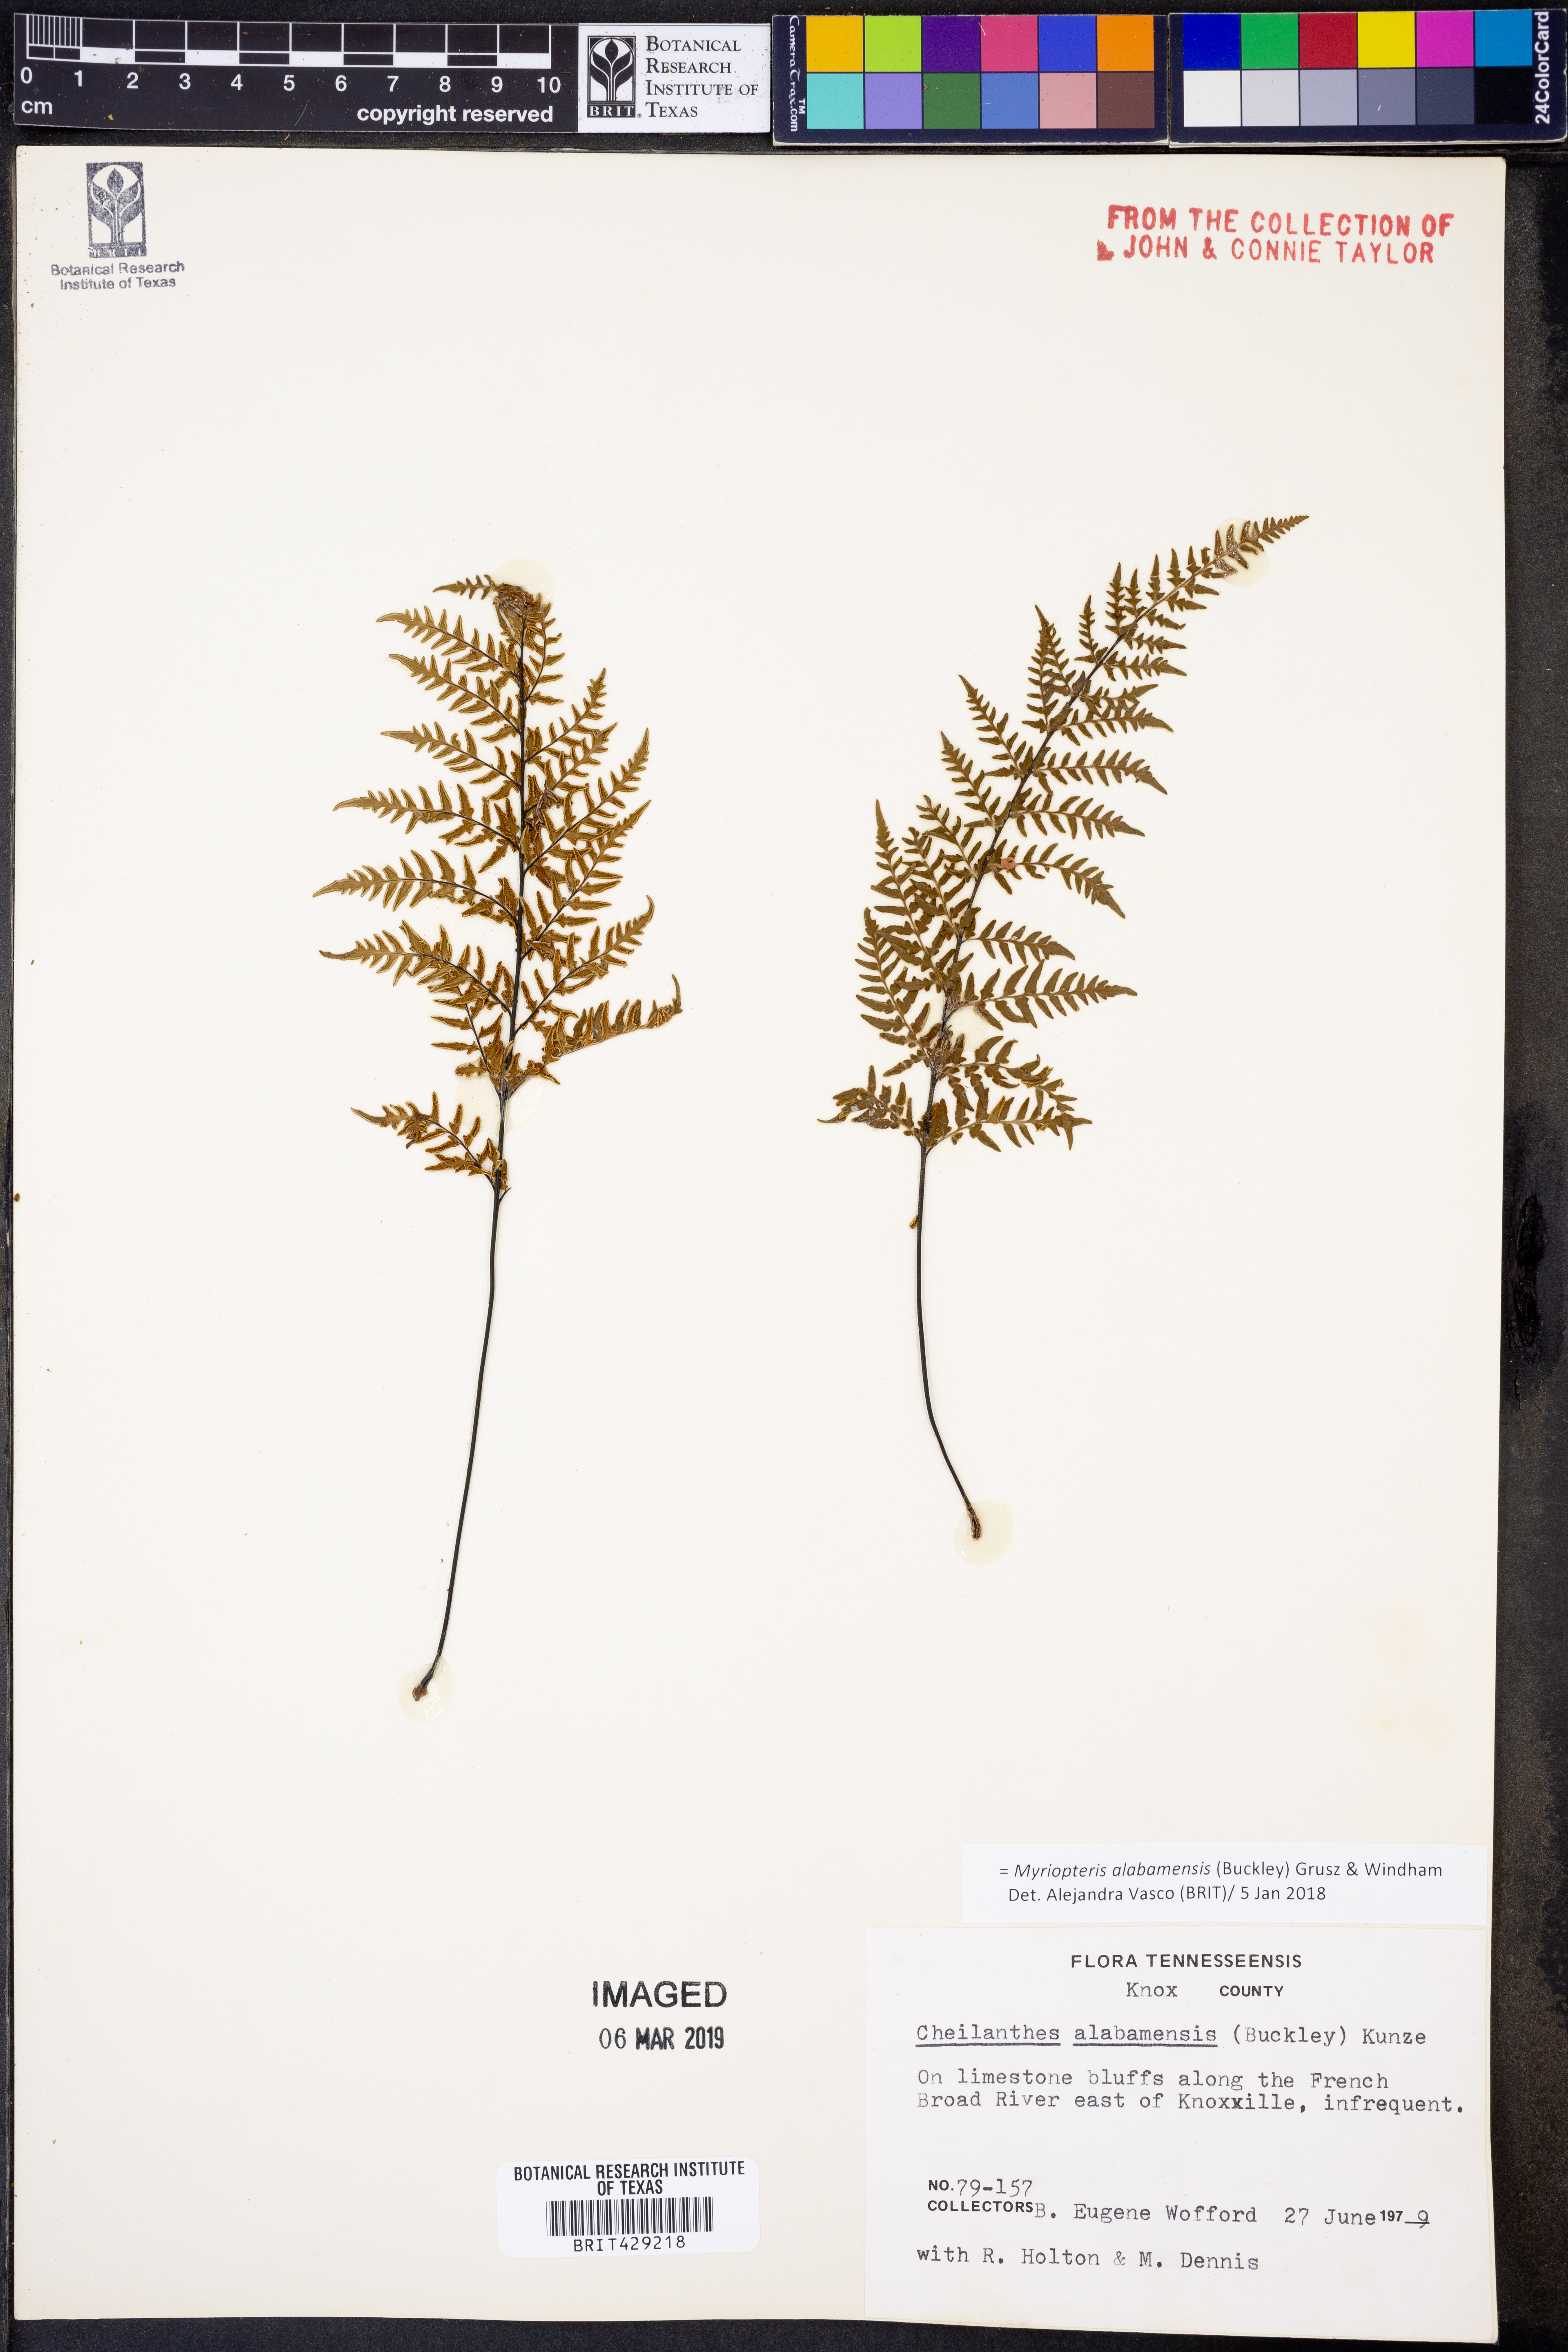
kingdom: Plantae
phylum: Tracheophyta
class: Polypodiopsida
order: Polypodiales
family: Pteridaceae
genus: Myriopteris
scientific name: Myriopteris alabamensis
